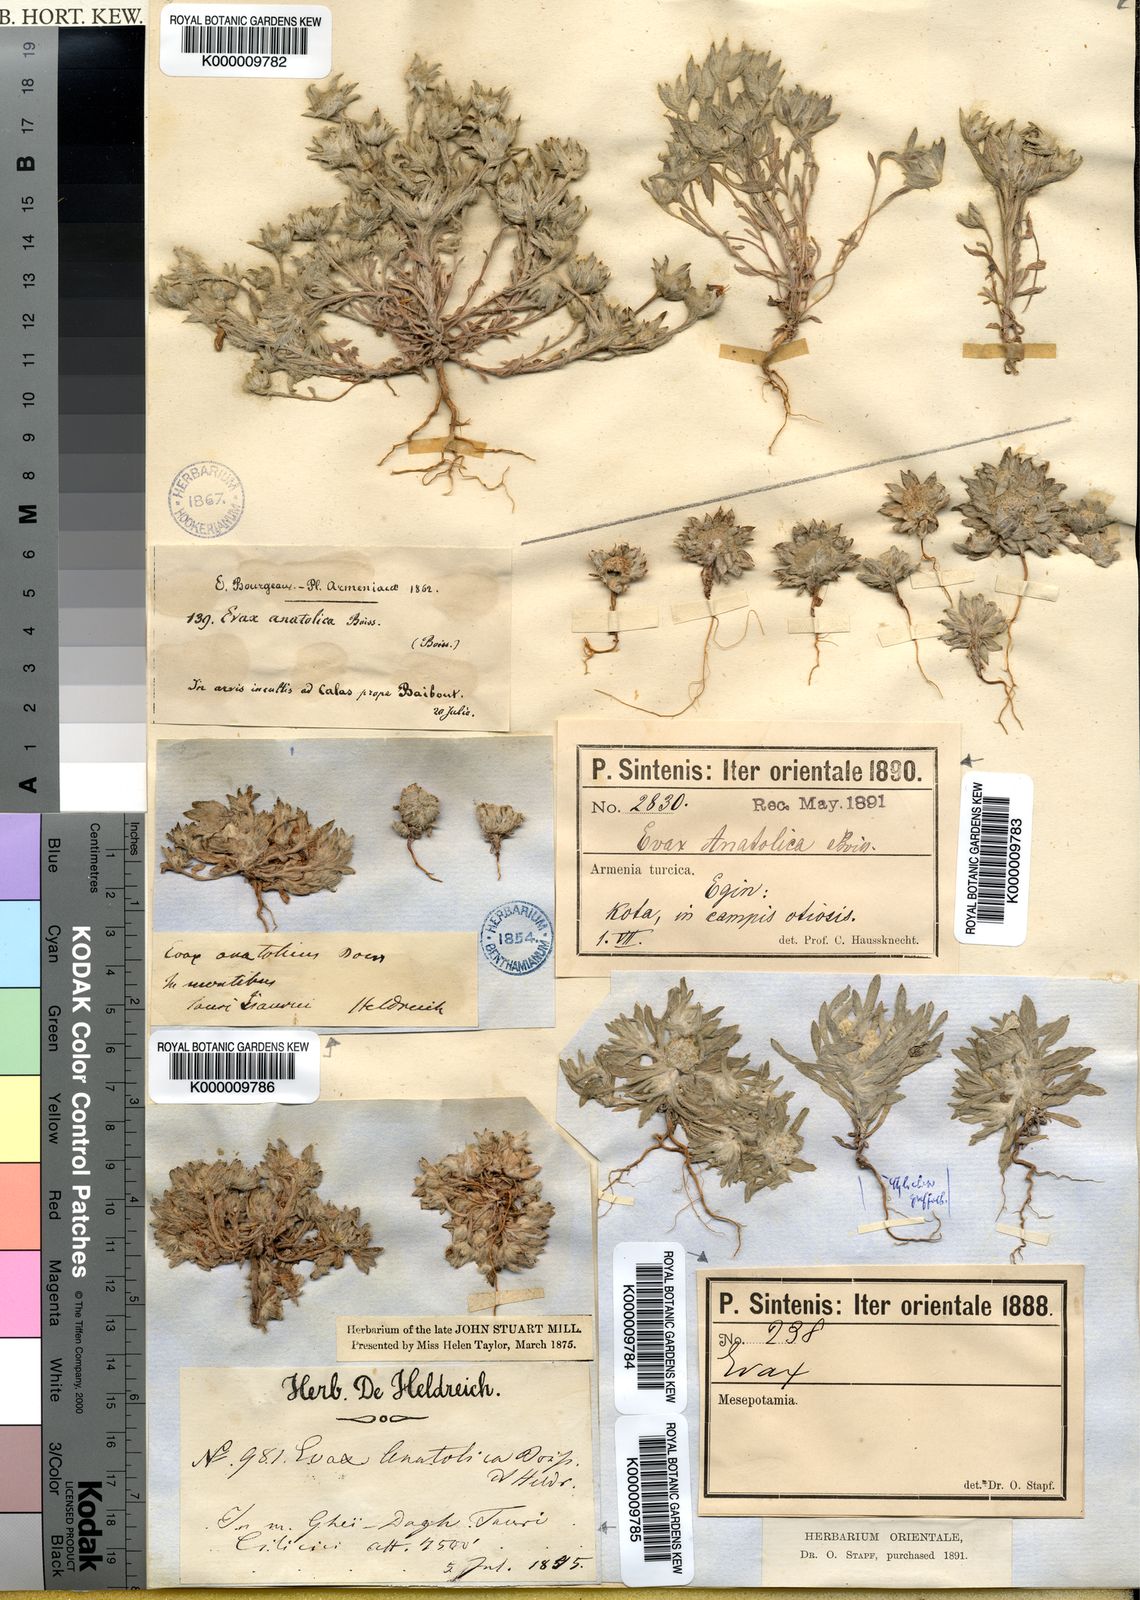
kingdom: Plantae
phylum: Tracheophyta
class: Magnoliopsida
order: Asterales
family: Asteraceae
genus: Filago
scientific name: Filago anatolica
